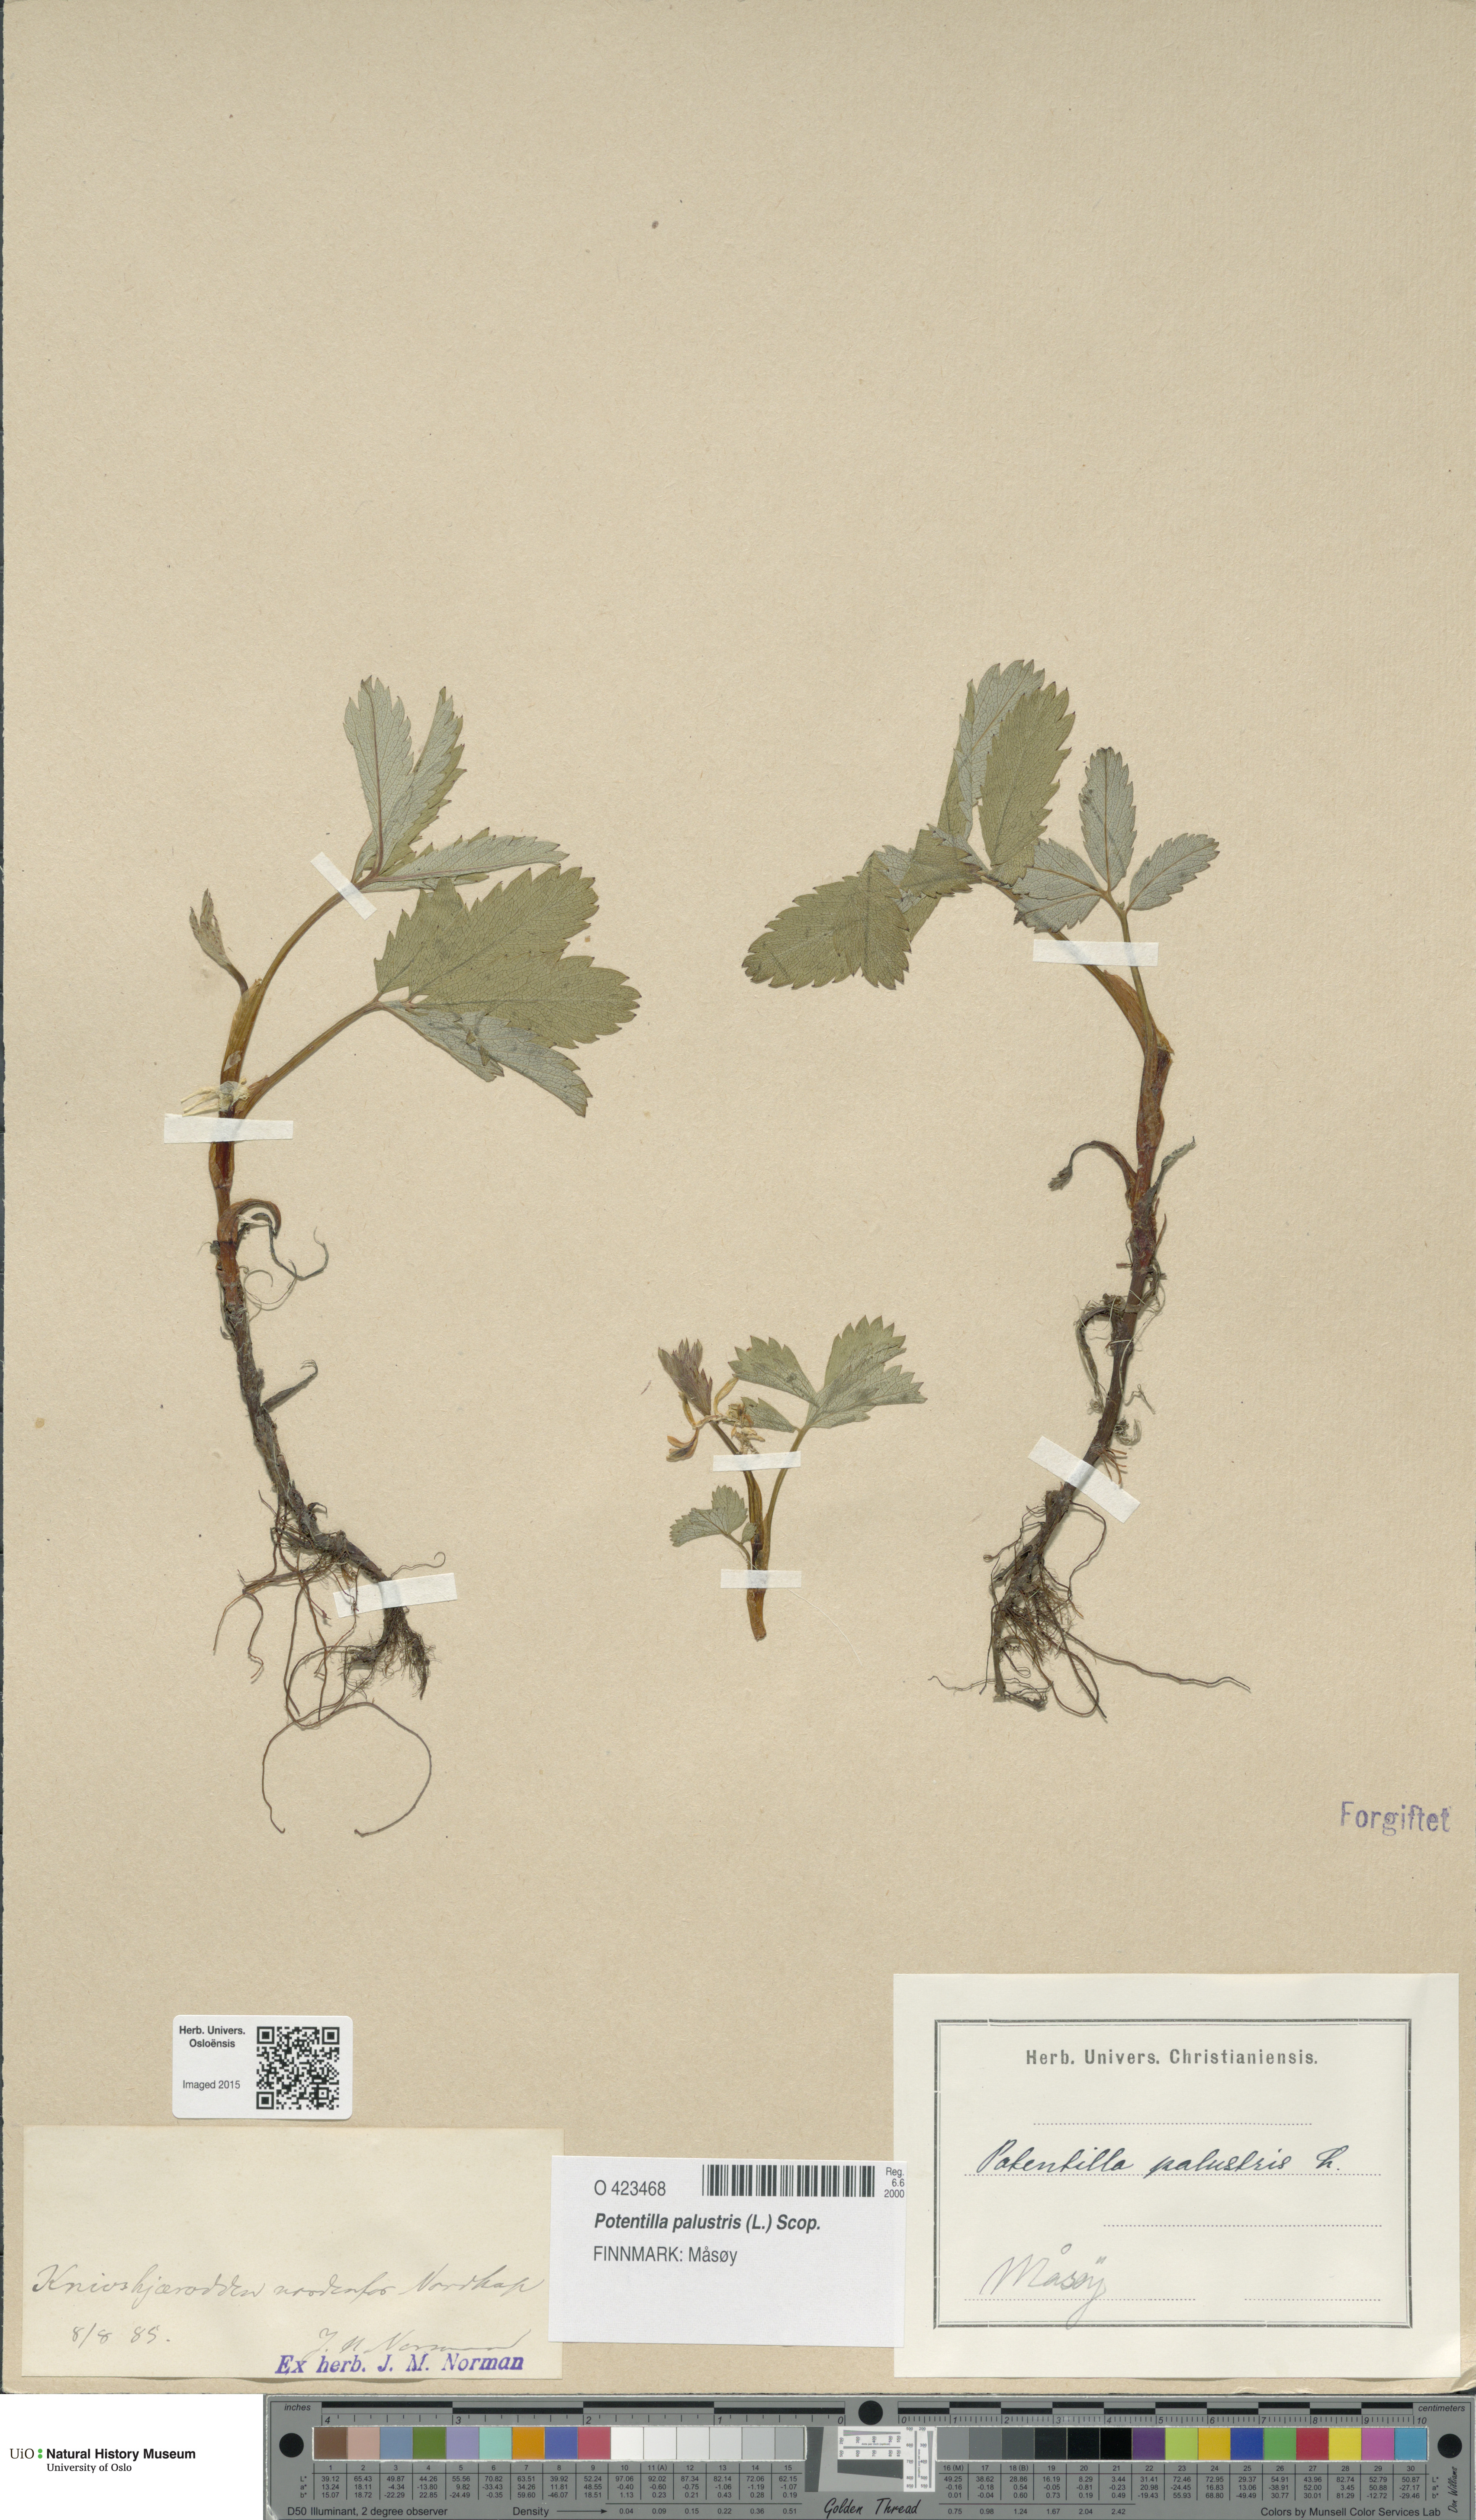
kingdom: Plantae
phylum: Tracheophyta
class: Magnoliopsida
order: Rosales
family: Rosaceae
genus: Comarum
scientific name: Comarum palustre
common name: Marsh cinquefoil
